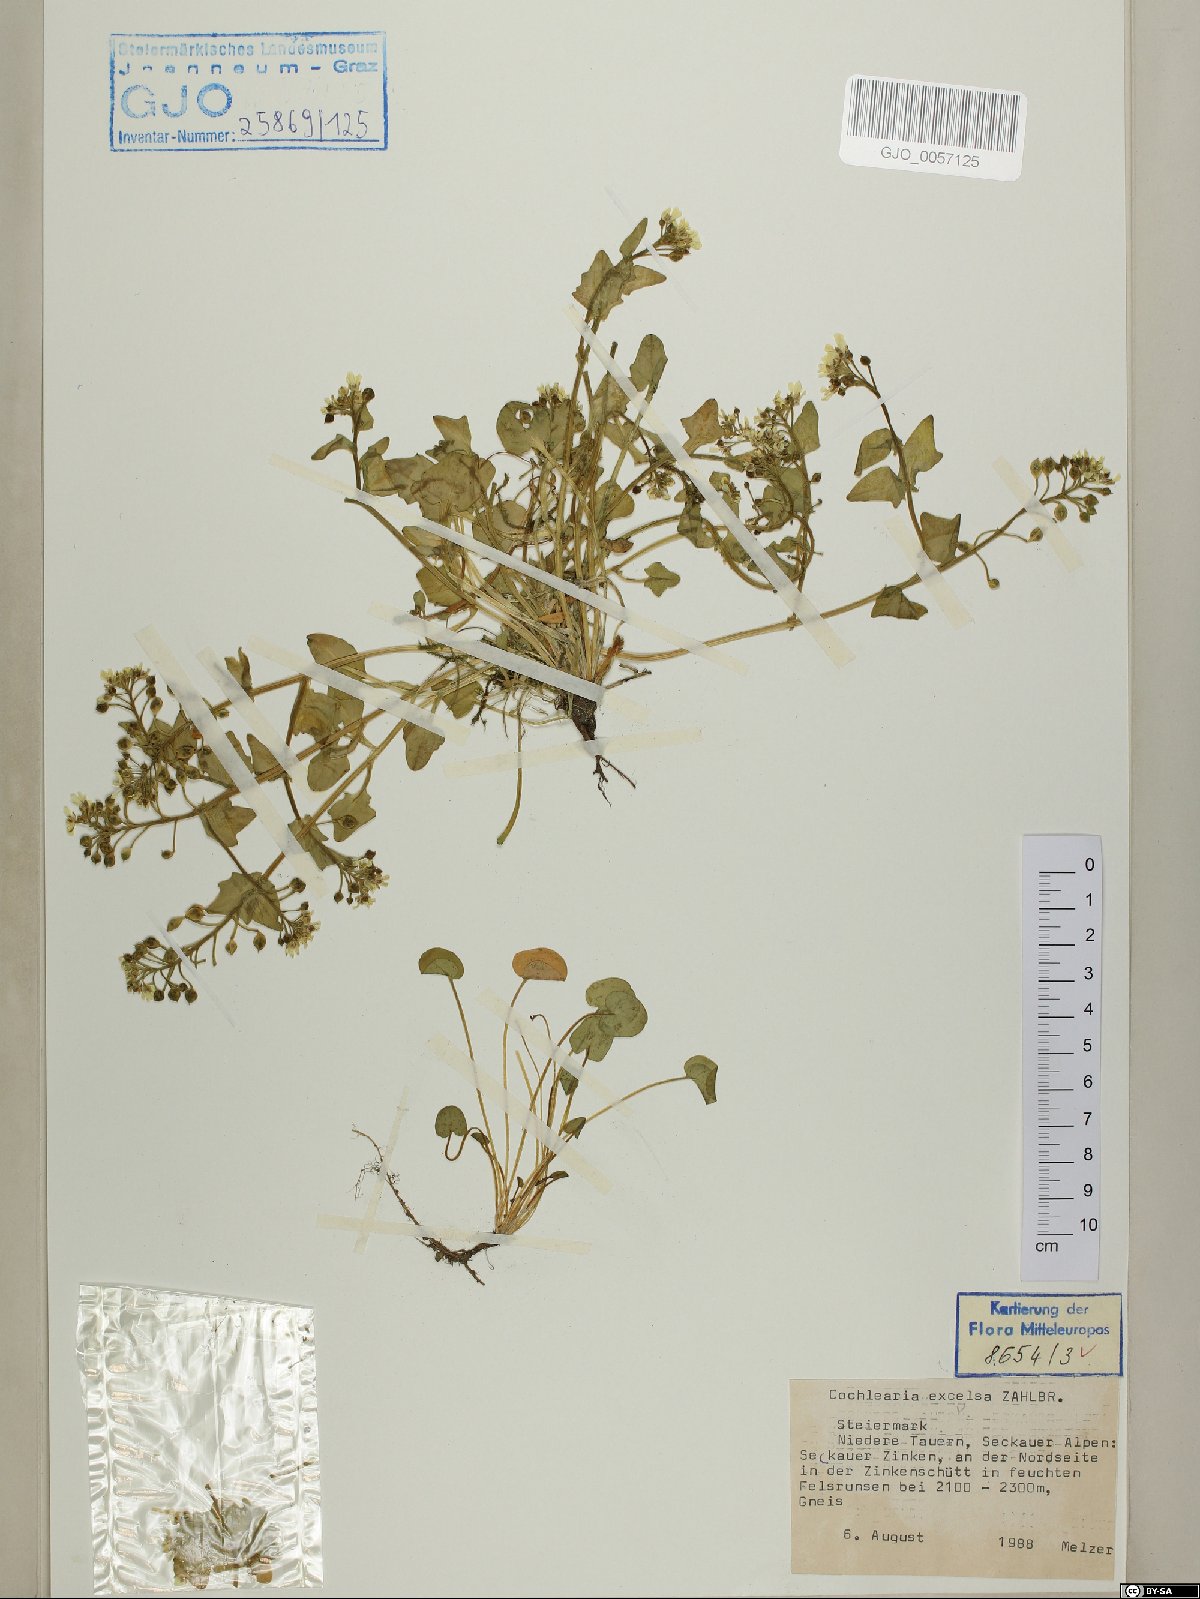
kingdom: Plantae
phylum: Tracheophyta
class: Magnoliopsida
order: Brassicales
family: Brassicaceae
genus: Cochlearia
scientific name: Cochlearia pyrenaica
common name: Upland scurvy-grass
